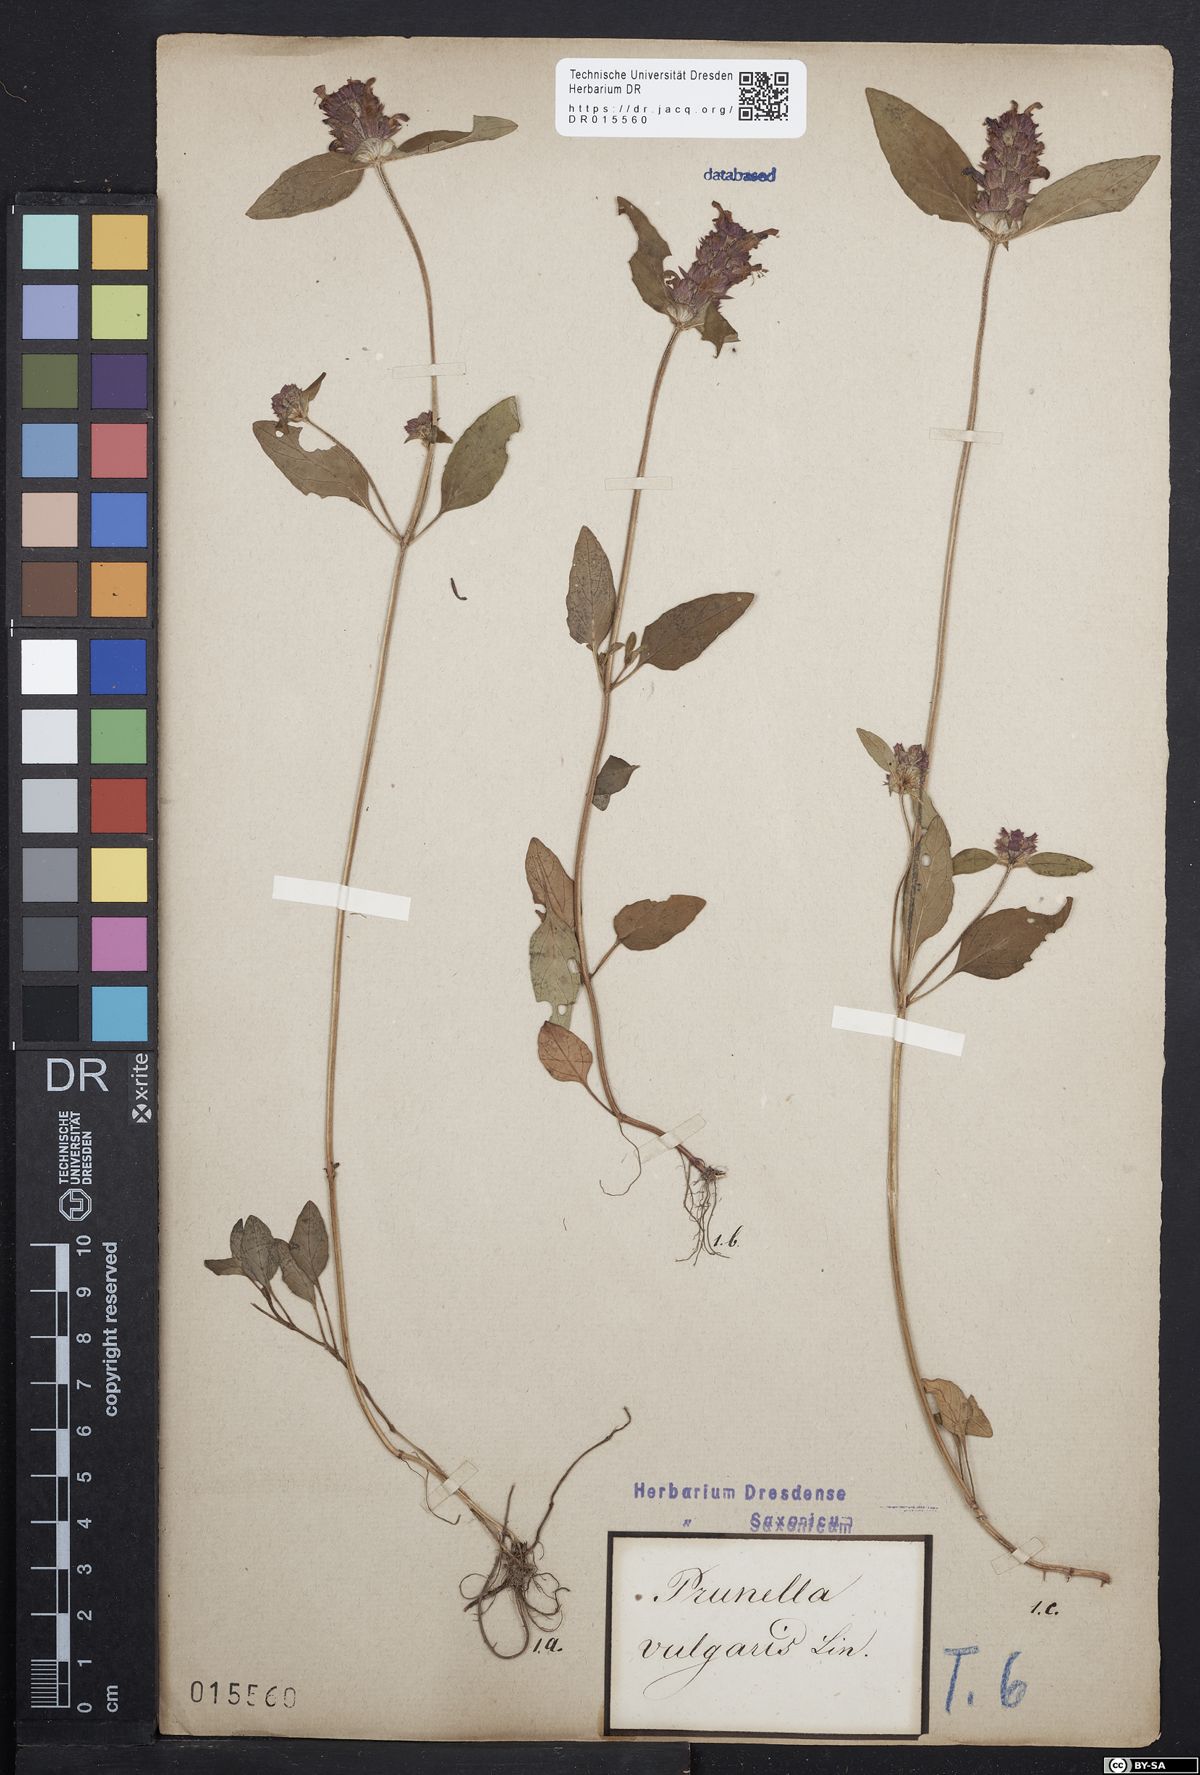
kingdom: Plantae
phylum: Tracheophyta
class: Magnoliopsida
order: Lamiales
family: Lamiaceae
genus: Prunella
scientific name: Prunella vulgaris
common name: Heal-all
